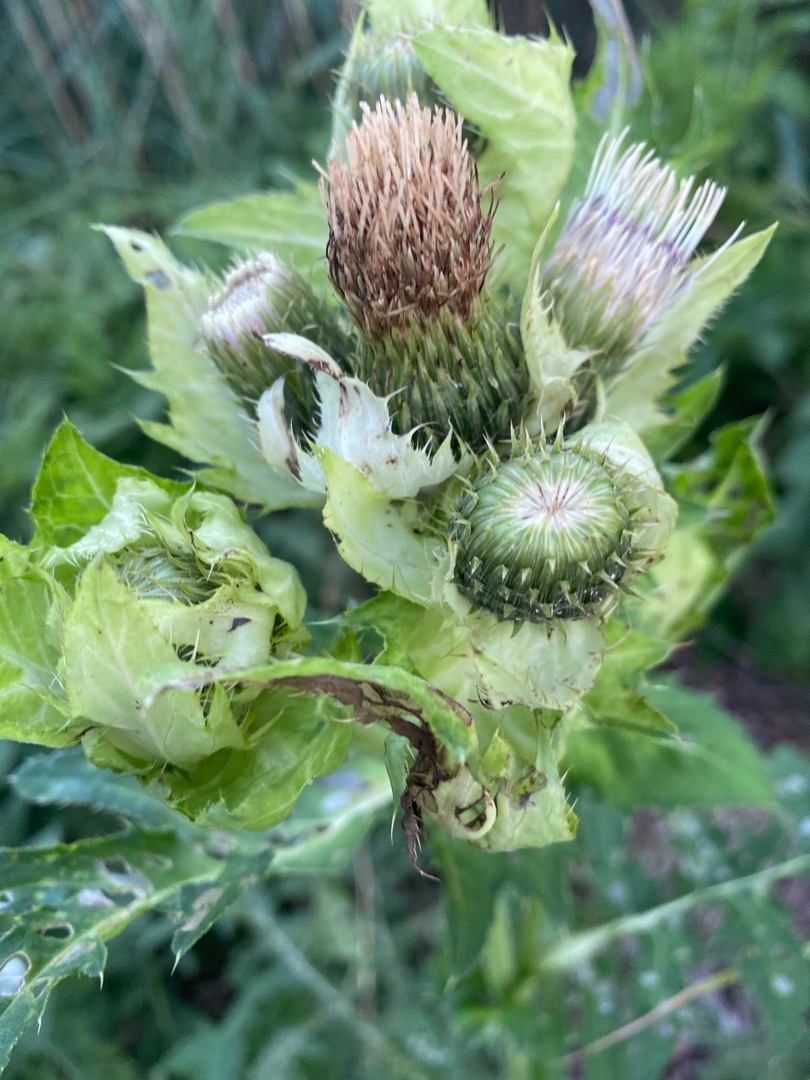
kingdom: Plantae
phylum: Tracheophyta
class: Magnoliopsida
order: Asterales
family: Asteraceae
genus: Cirsium
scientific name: Cirsium oleraceum
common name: Kål-tidsel
